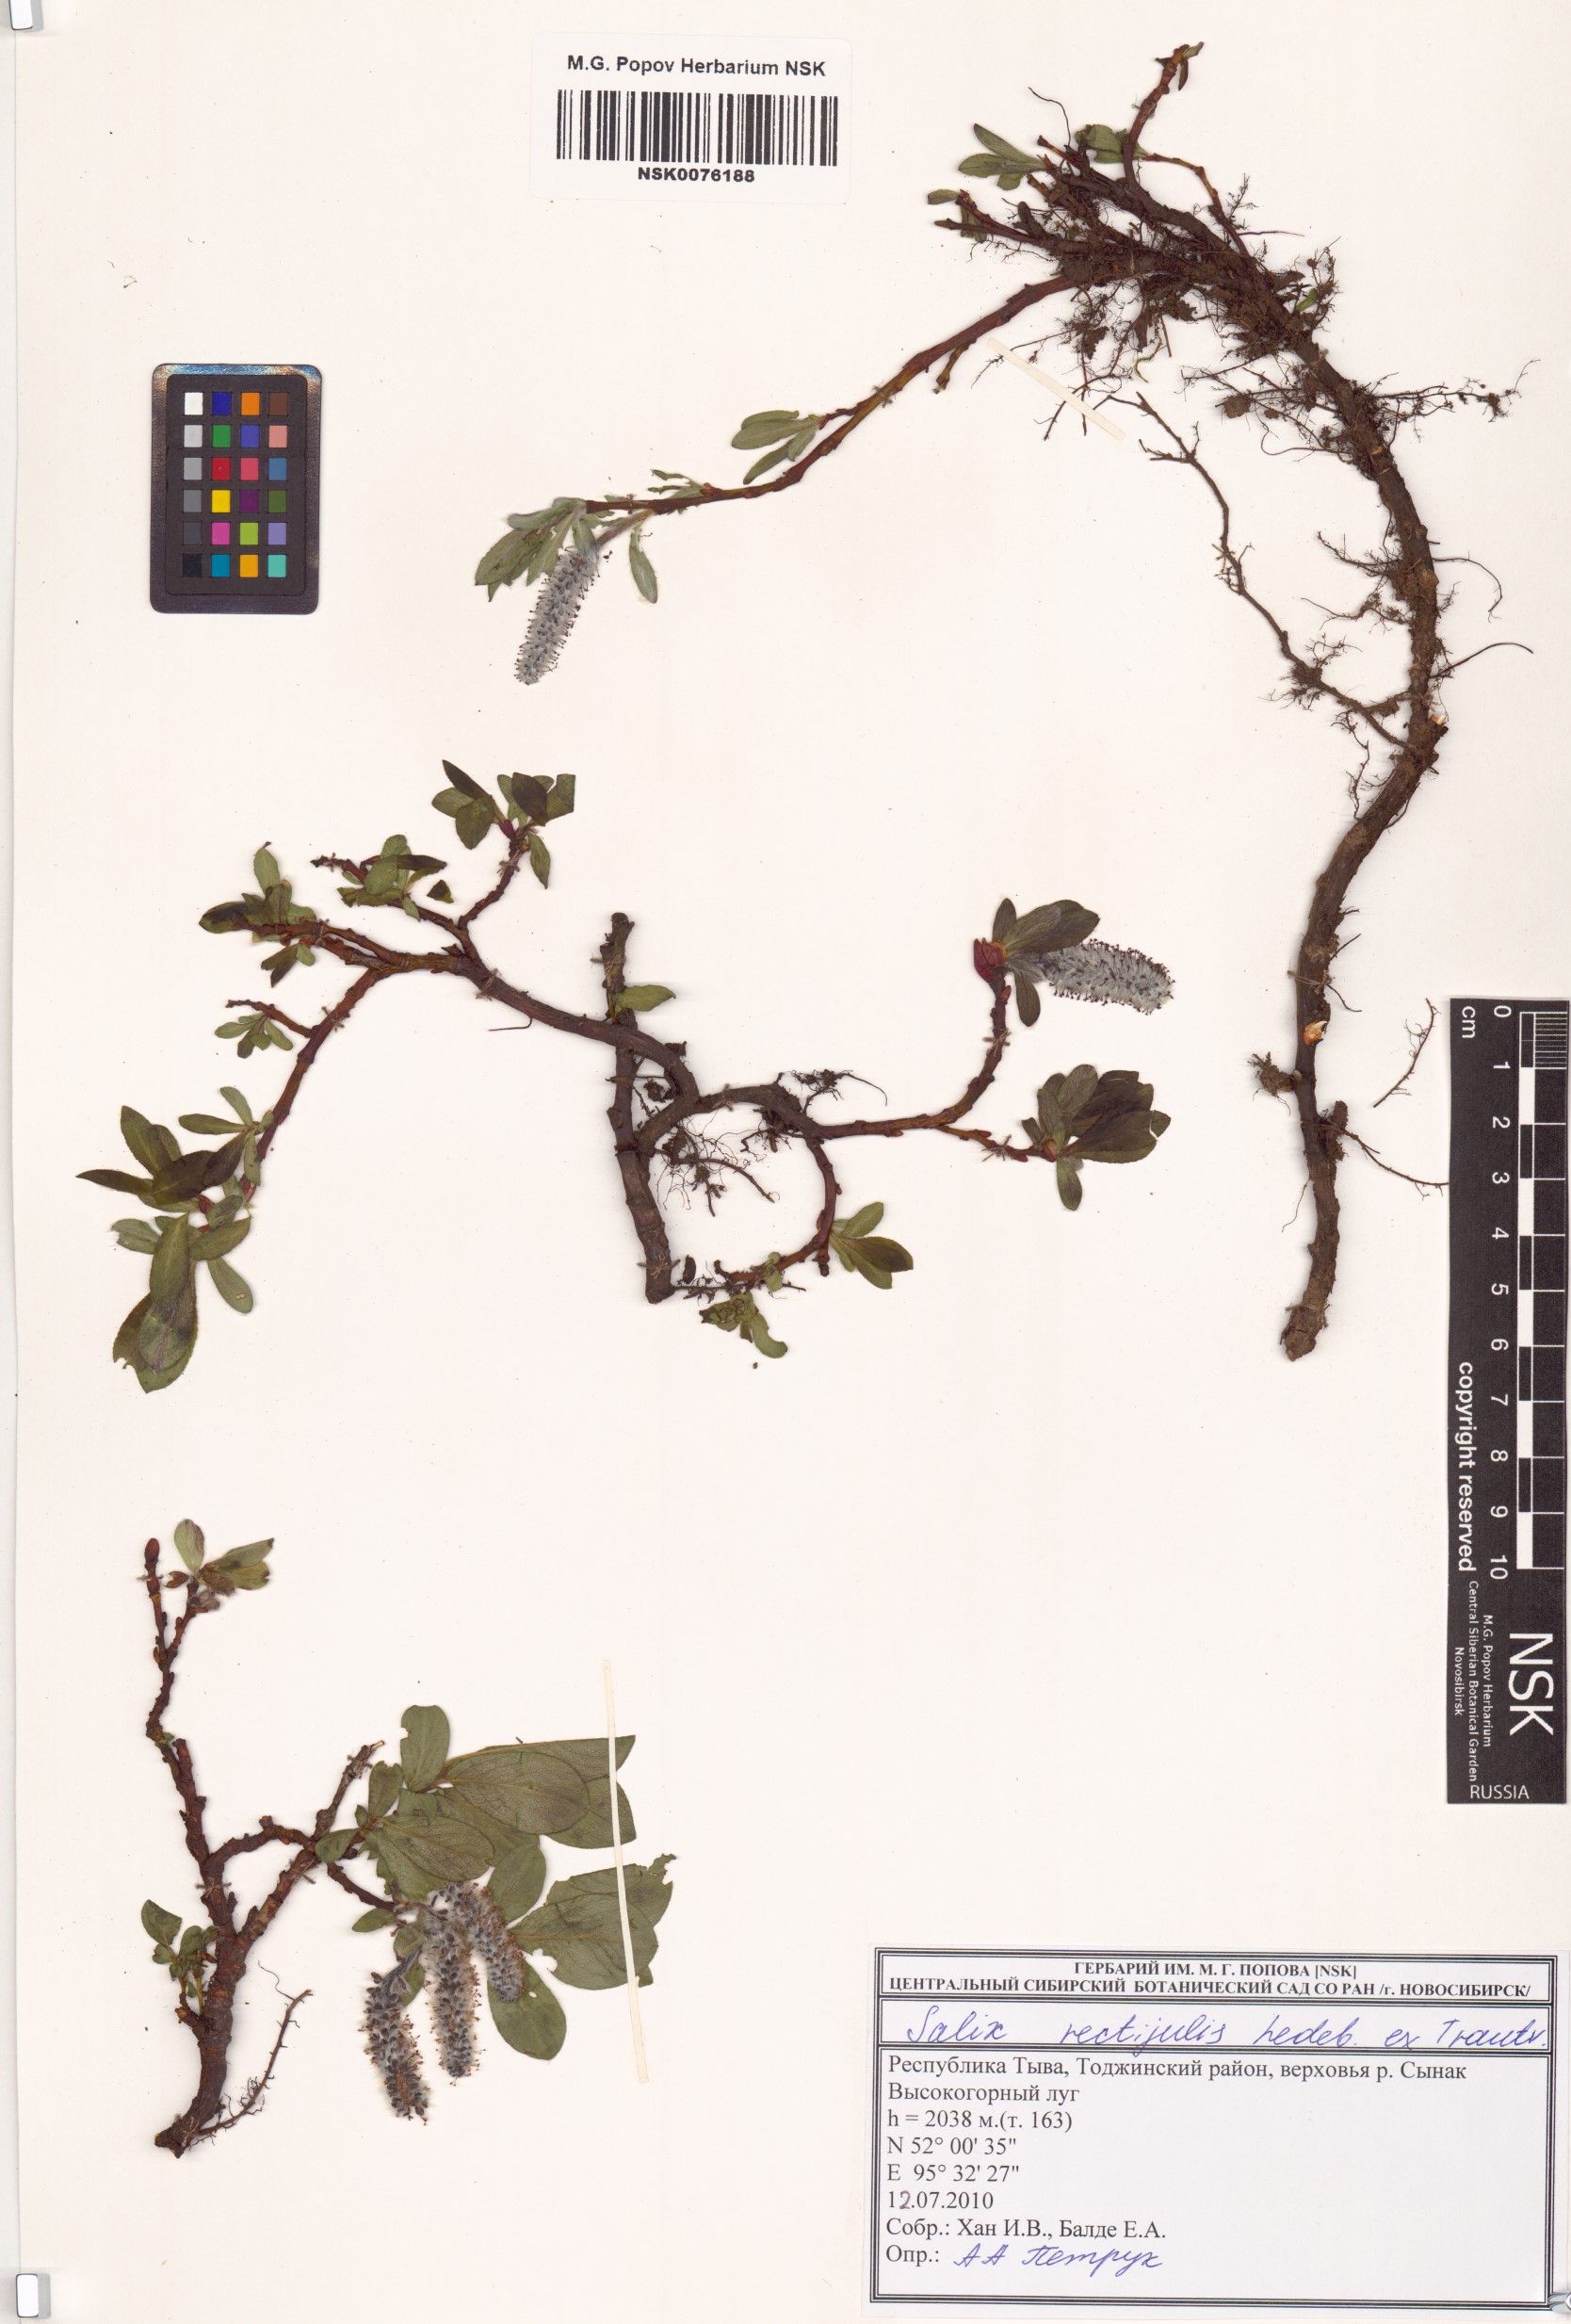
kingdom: Plantae
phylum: Tracheophyta
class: Magnoliopsida
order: Malpighiales
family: Salicaceae
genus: Salix
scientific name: Salix rectijulis
